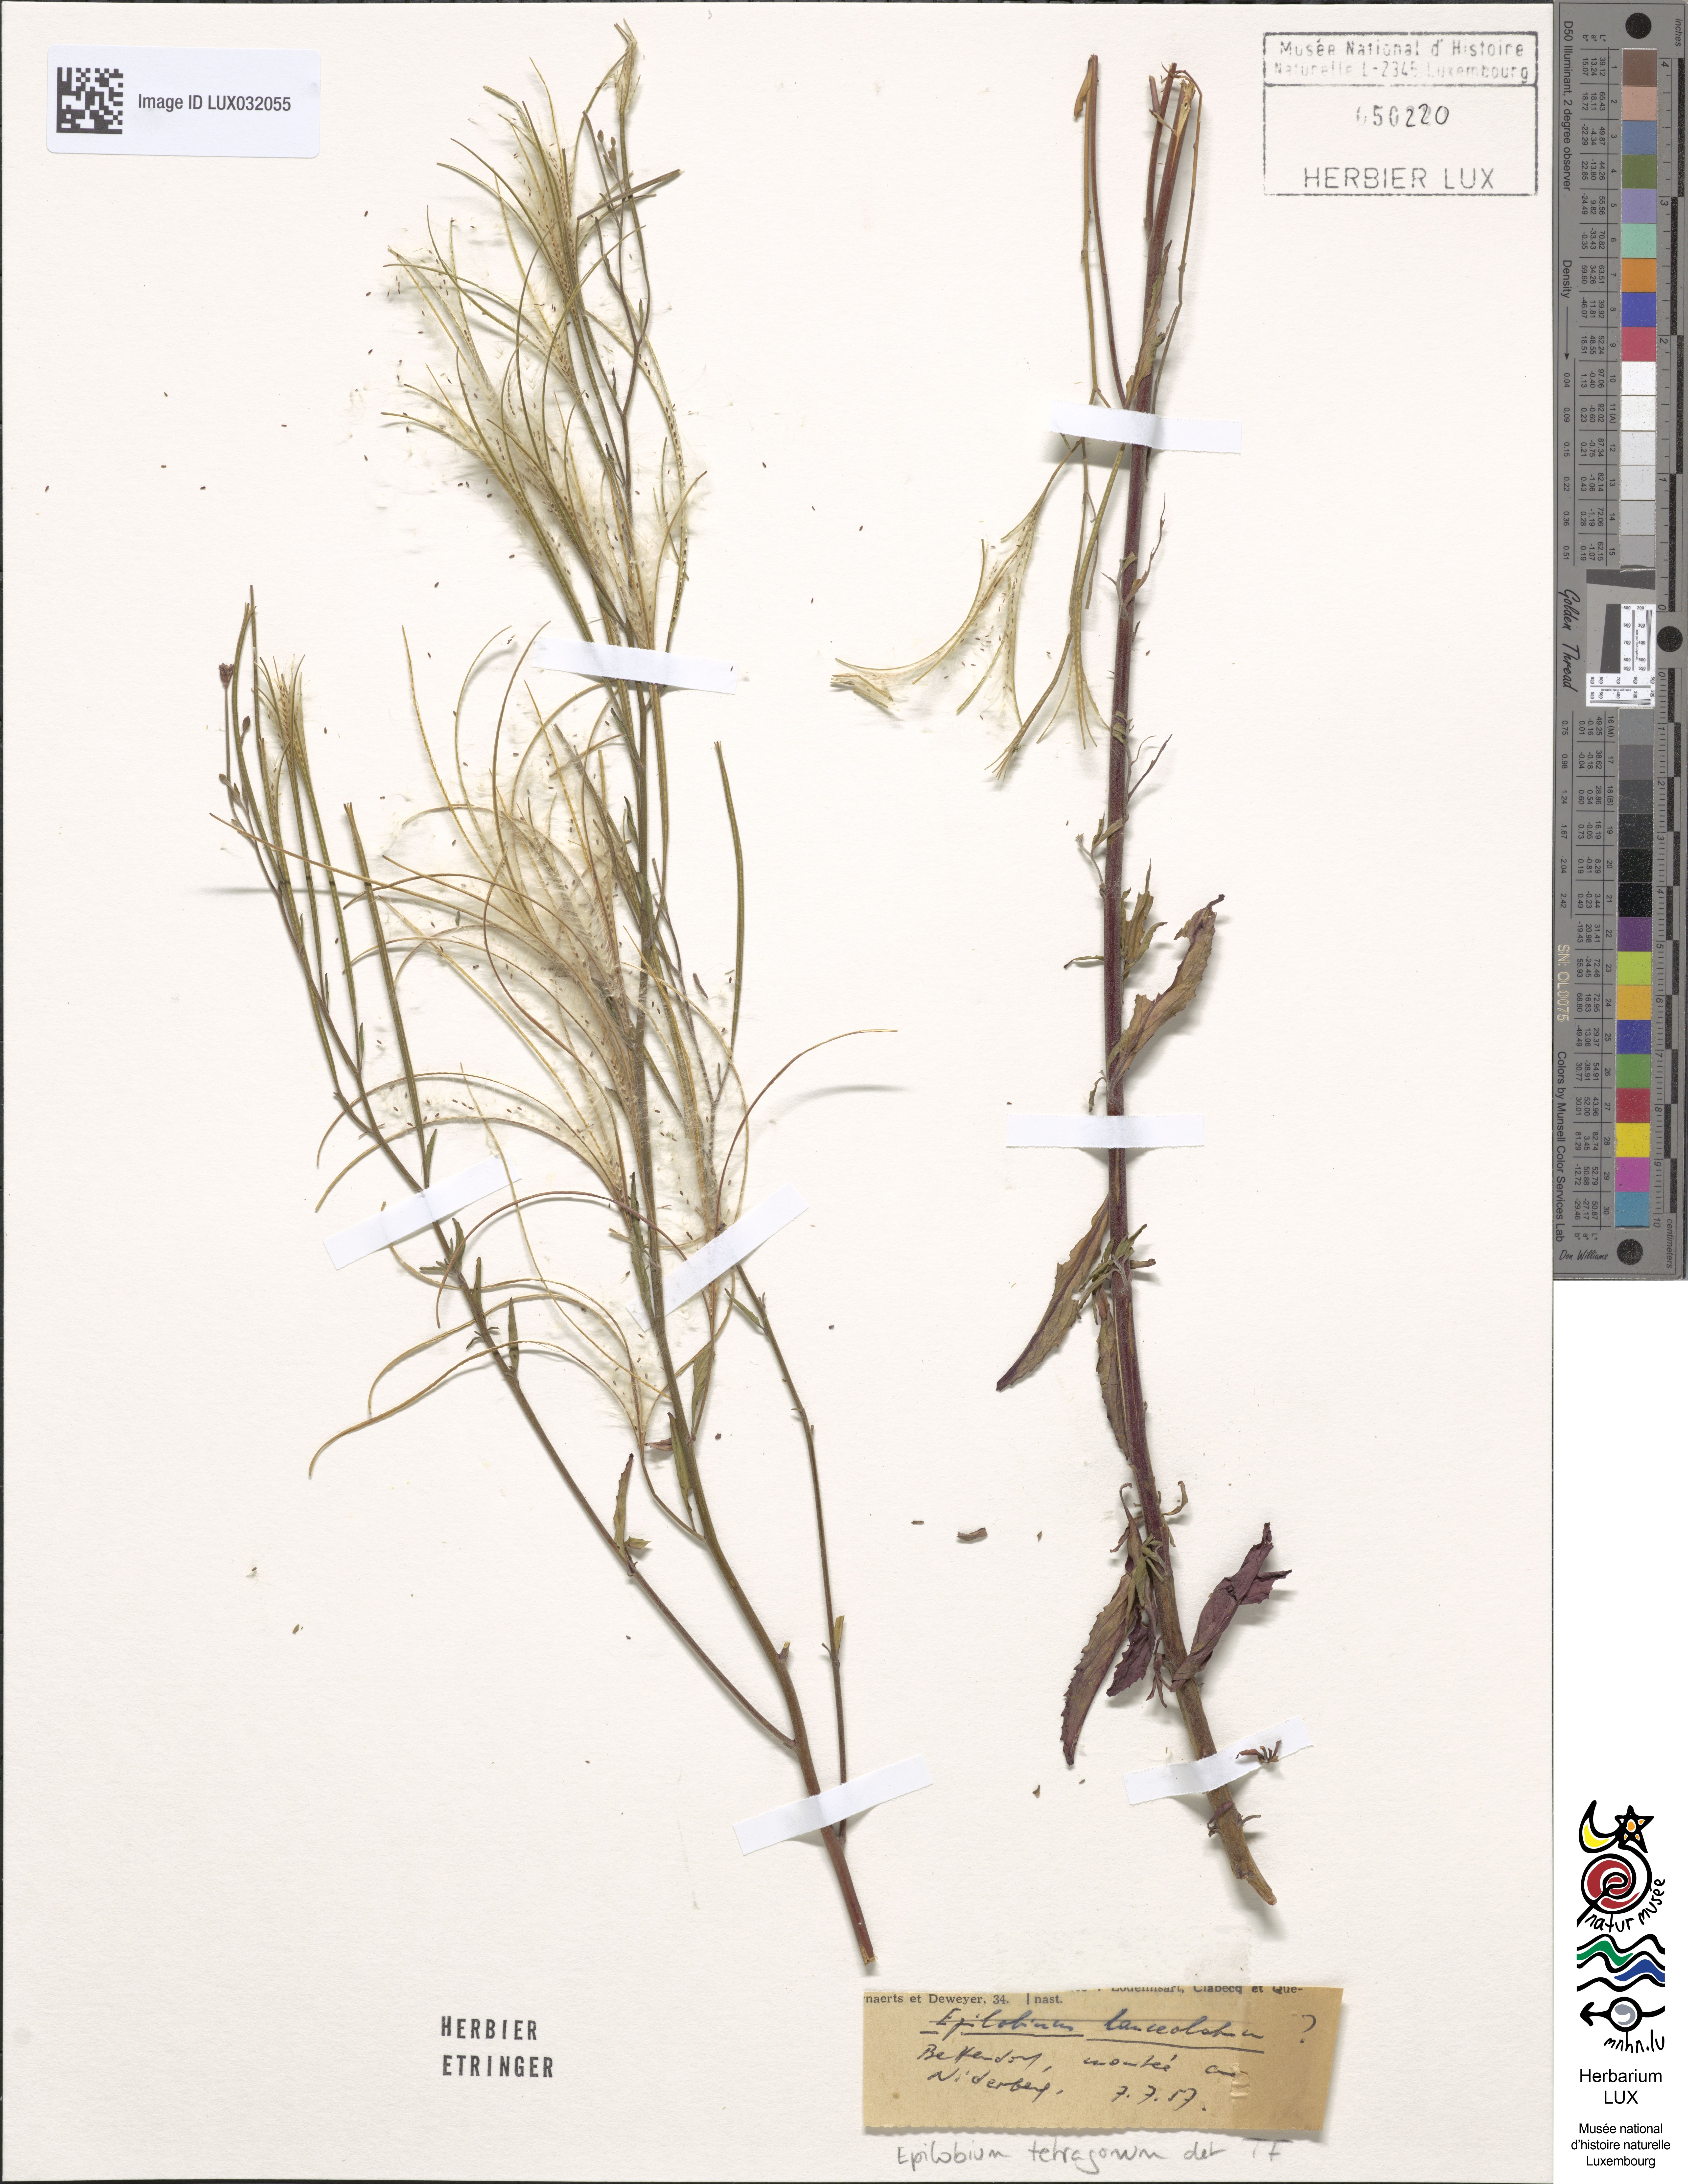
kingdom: Plantae
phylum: Tracheophyta
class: Magnoliopsida
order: Myrtales
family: Onagraceae
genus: Epilobium
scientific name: Epilobium lanceolatum
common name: Spear-leaved willowherb
